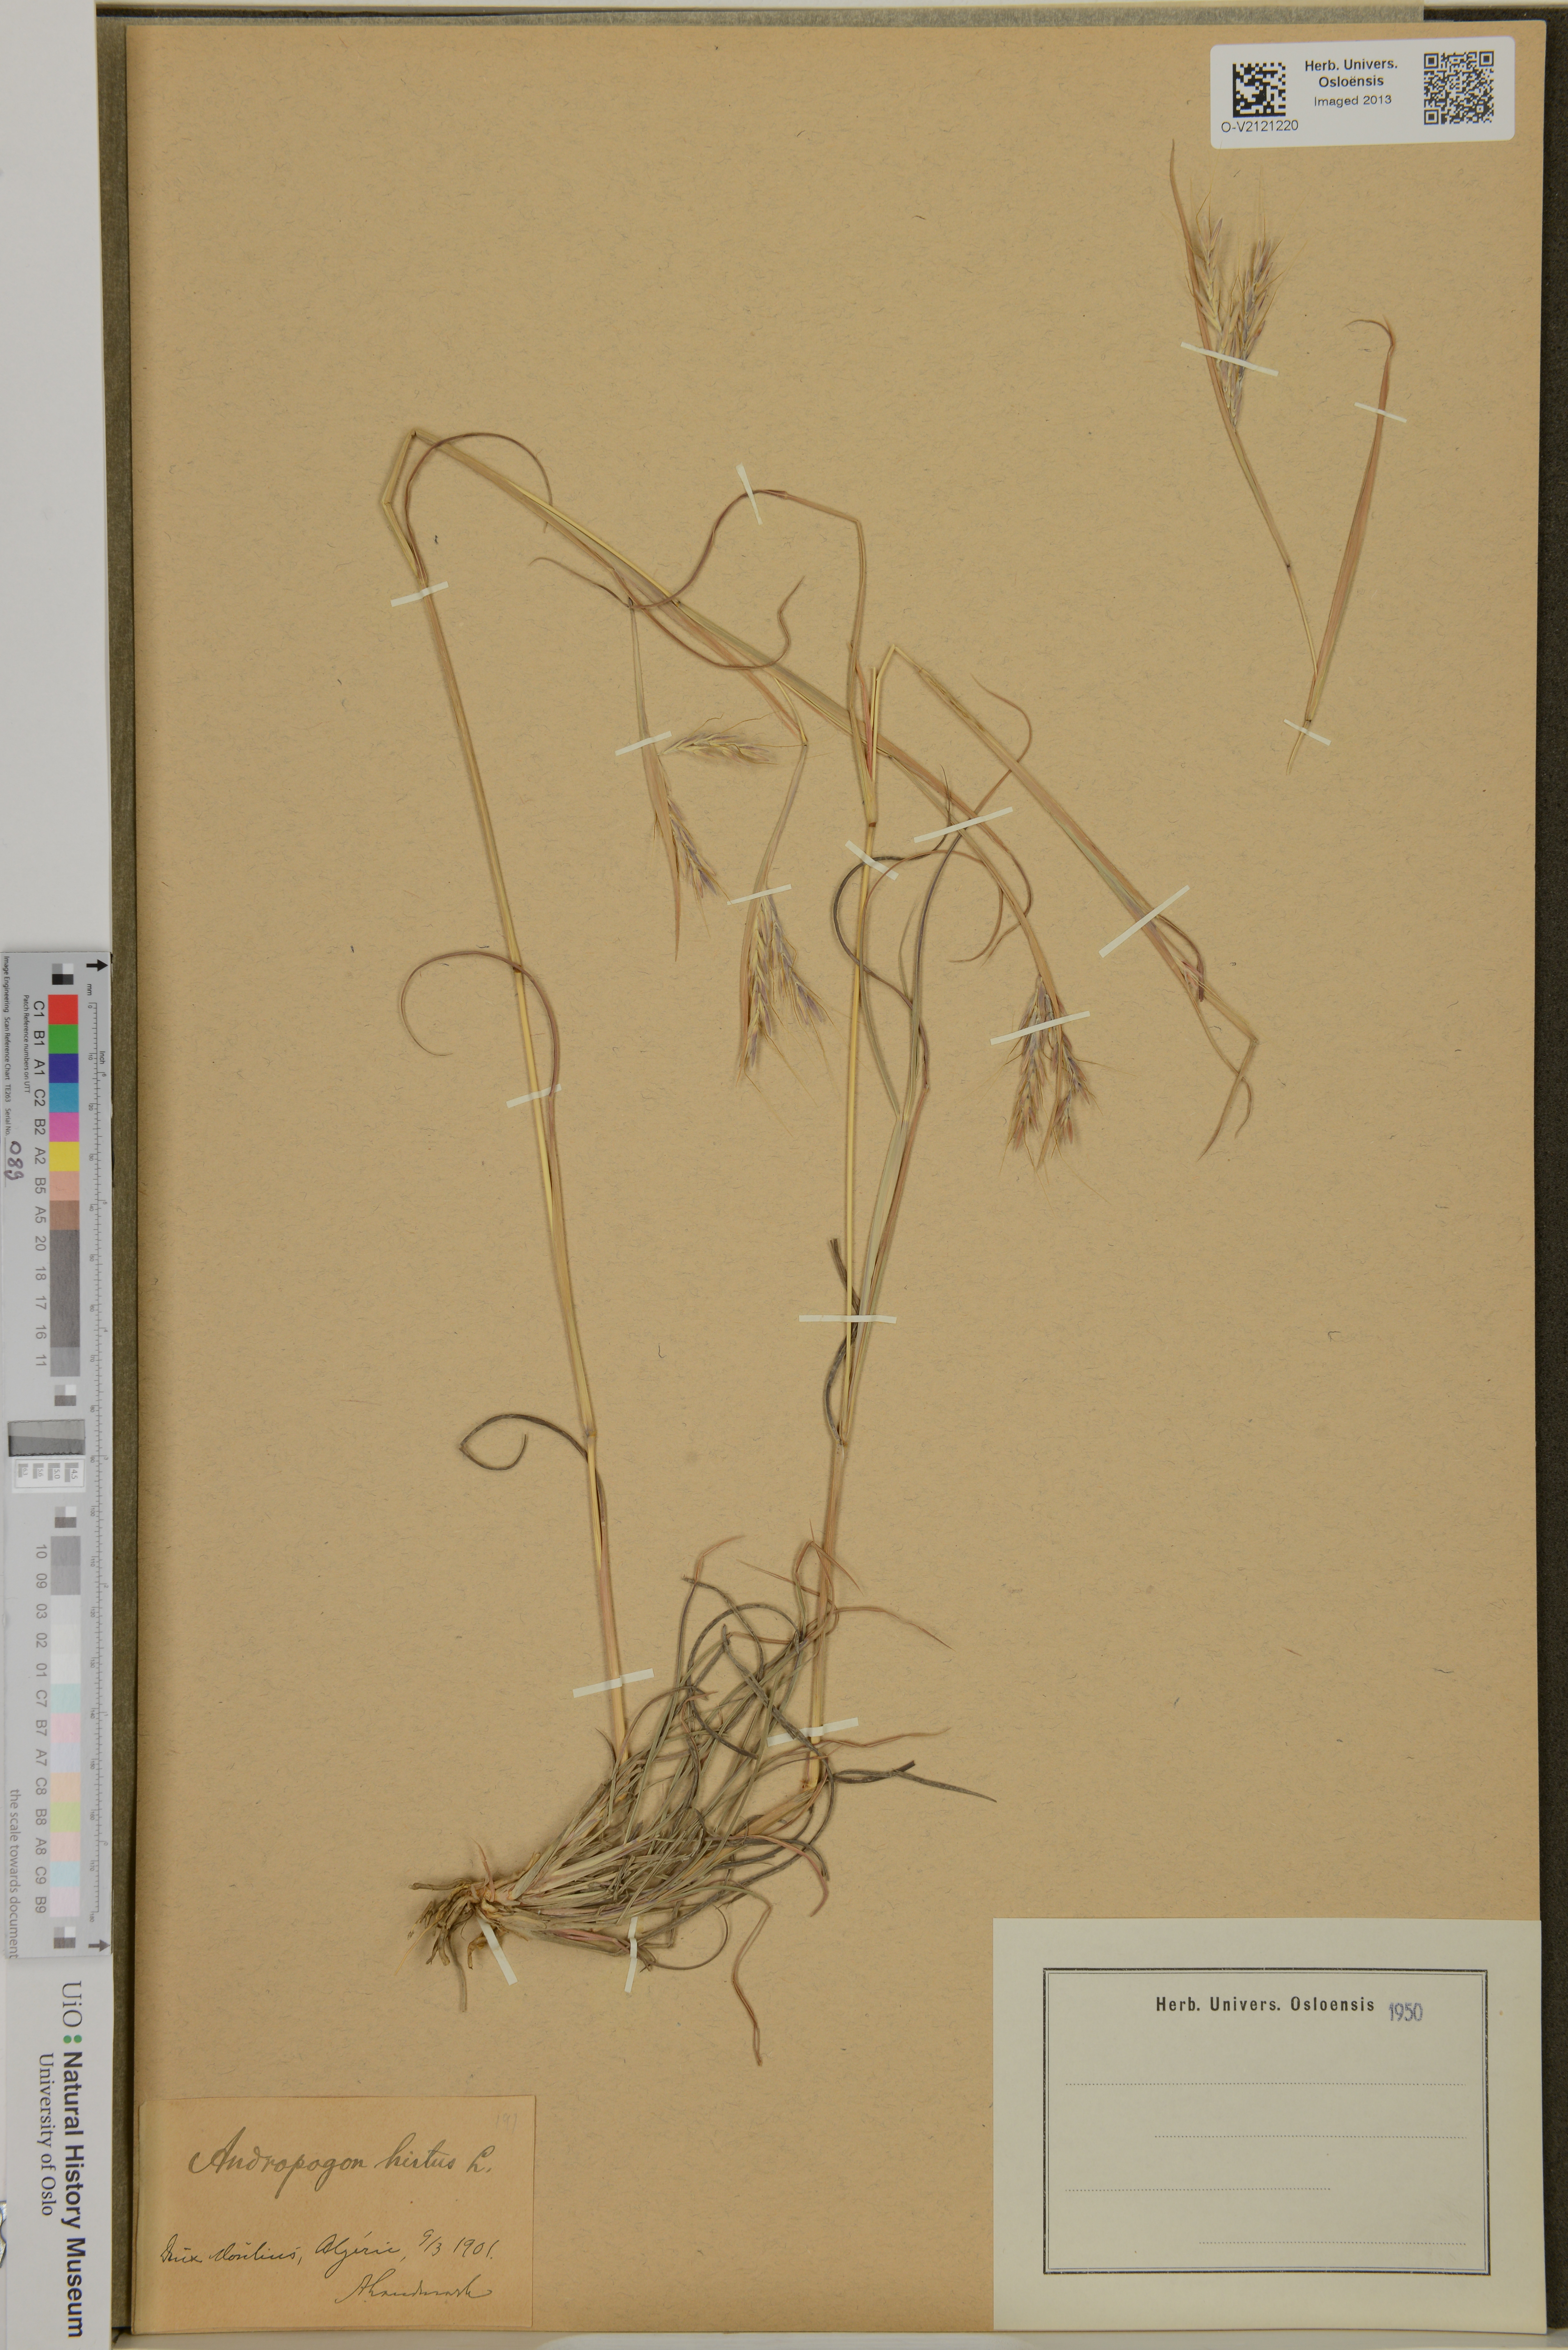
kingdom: Plantae
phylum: Tracheophyta
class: Liliopsida
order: Poales
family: Poaceae
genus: Hyparrhenia
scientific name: Hyparrhenia
